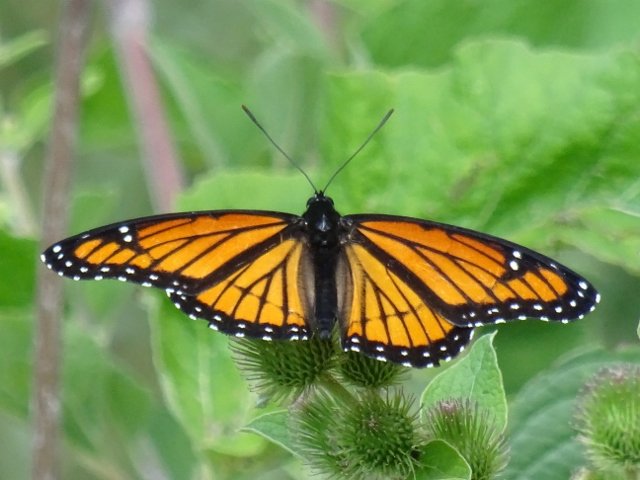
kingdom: Animalia
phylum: Arthropoda
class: Insecta
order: Lepidoptera
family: Nymphalidae
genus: Limenitis
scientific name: Limenitis archippus
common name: Viceroy
